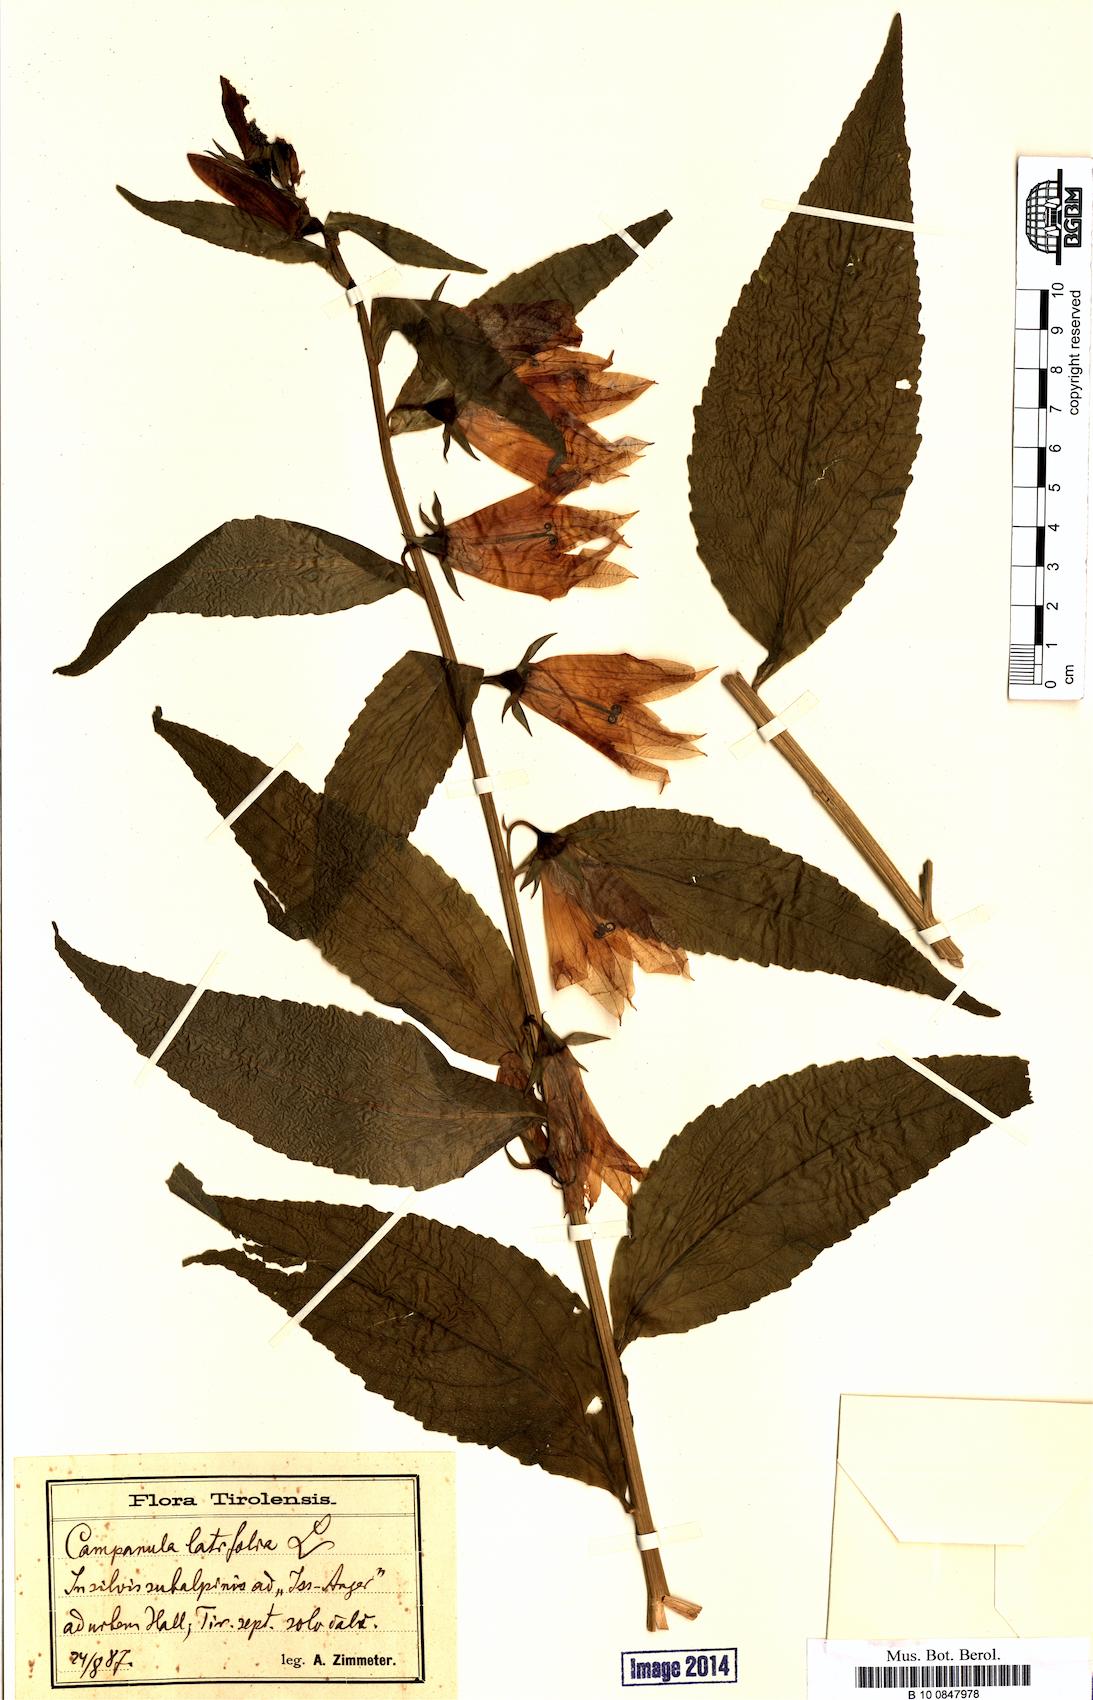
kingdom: Plantae
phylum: Tracheophyta
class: Magnoliopsida
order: Asterales
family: Campanulaceae
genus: Campanula
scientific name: Campanula latifolia
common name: Giant bellflower
